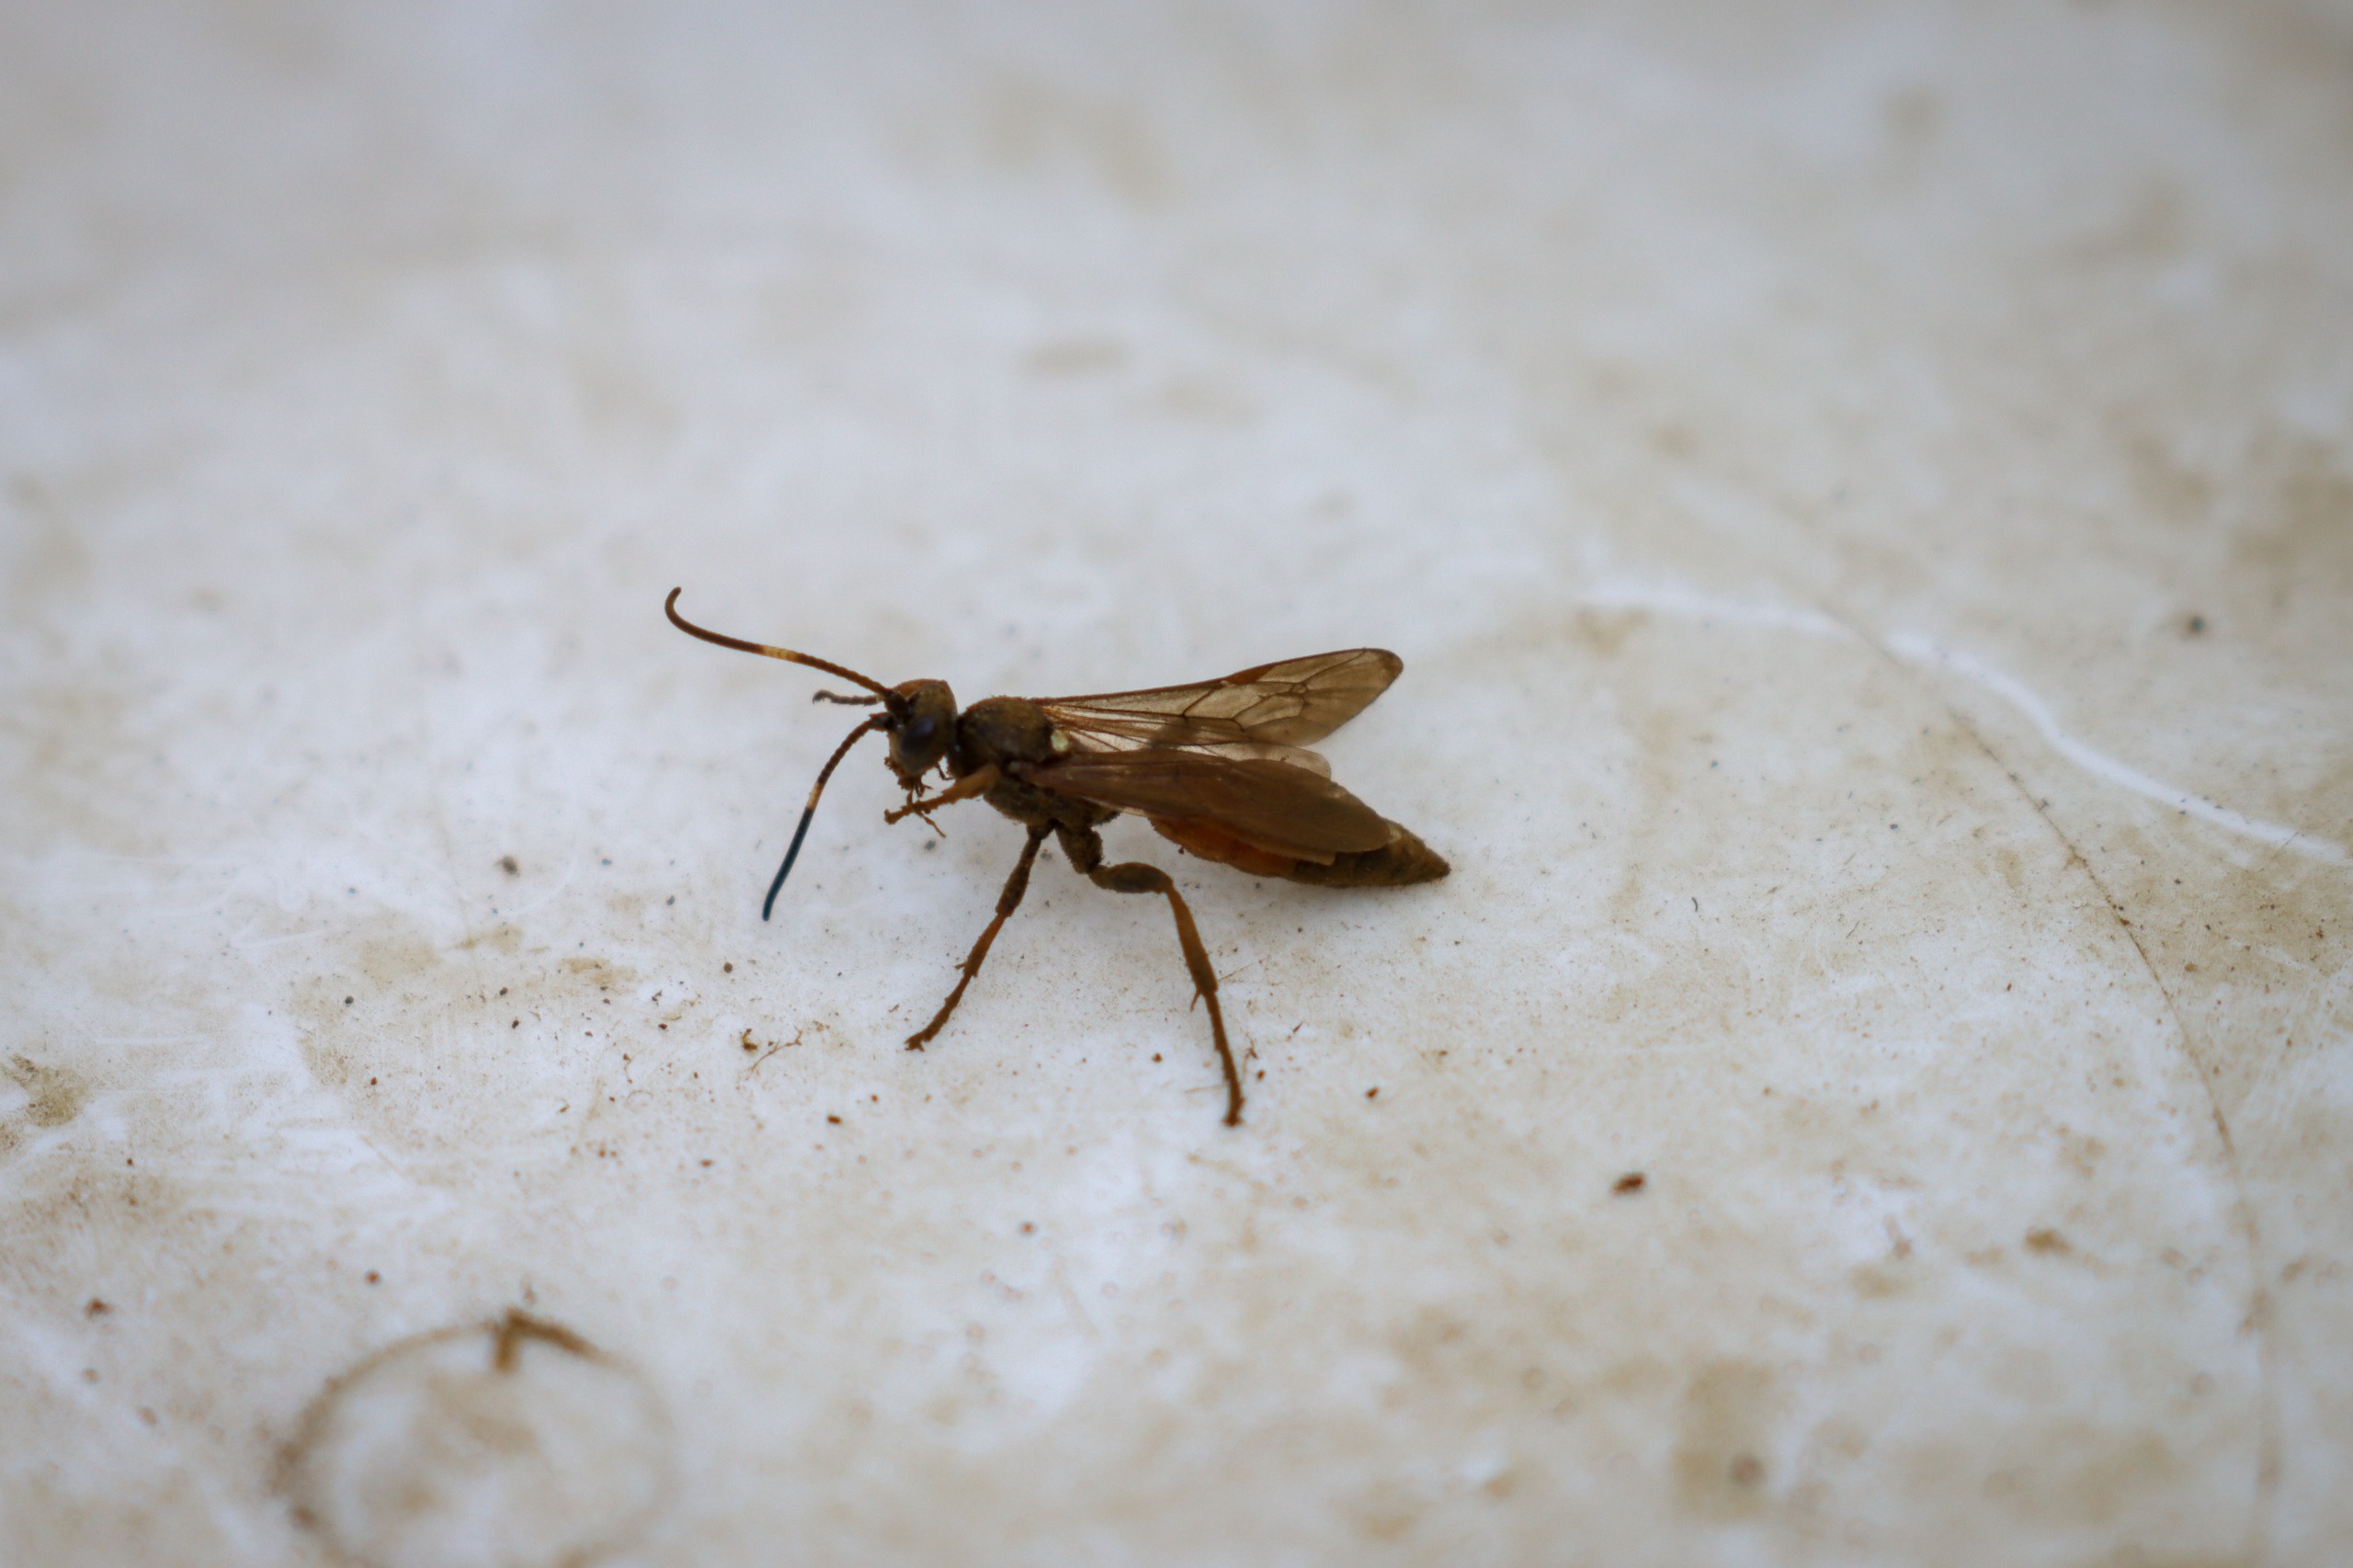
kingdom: Animalia
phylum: Arthropoda
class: Insecta
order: Hymenoptera
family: Ichneumonidae
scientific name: Ichneumonidae
